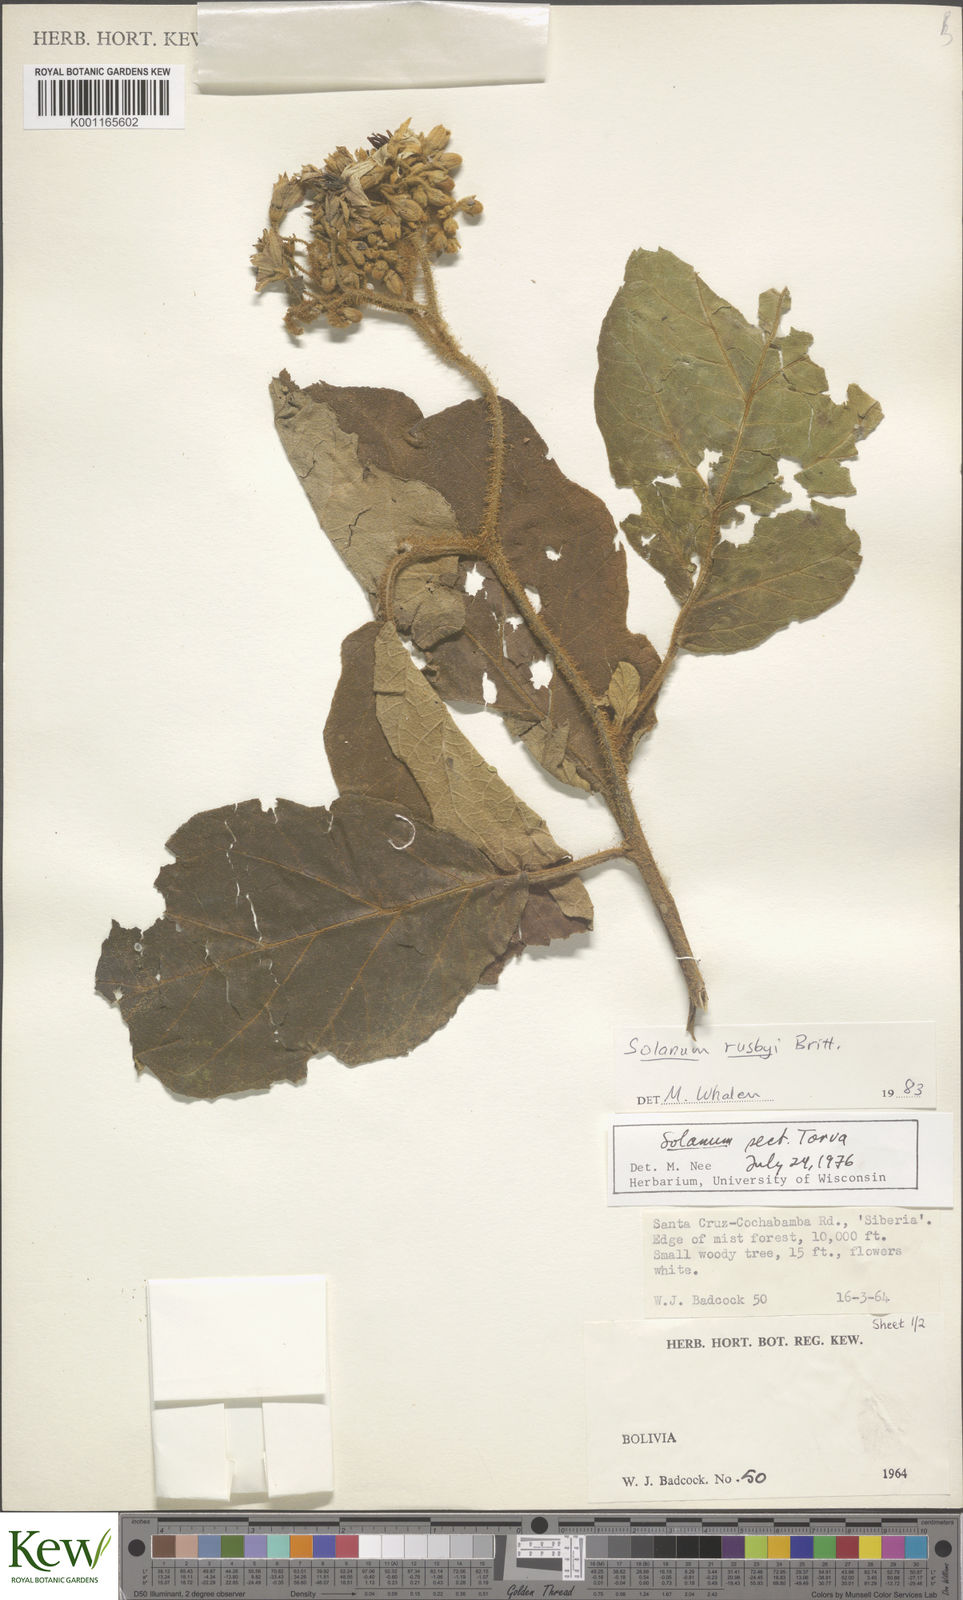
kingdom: Plantae
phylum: Tracheophyta
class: Magnoliopsida
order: Solanales
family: Solanaceae
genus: Solanum
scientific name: Solanum asperolanatum
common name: Devil's-fig
